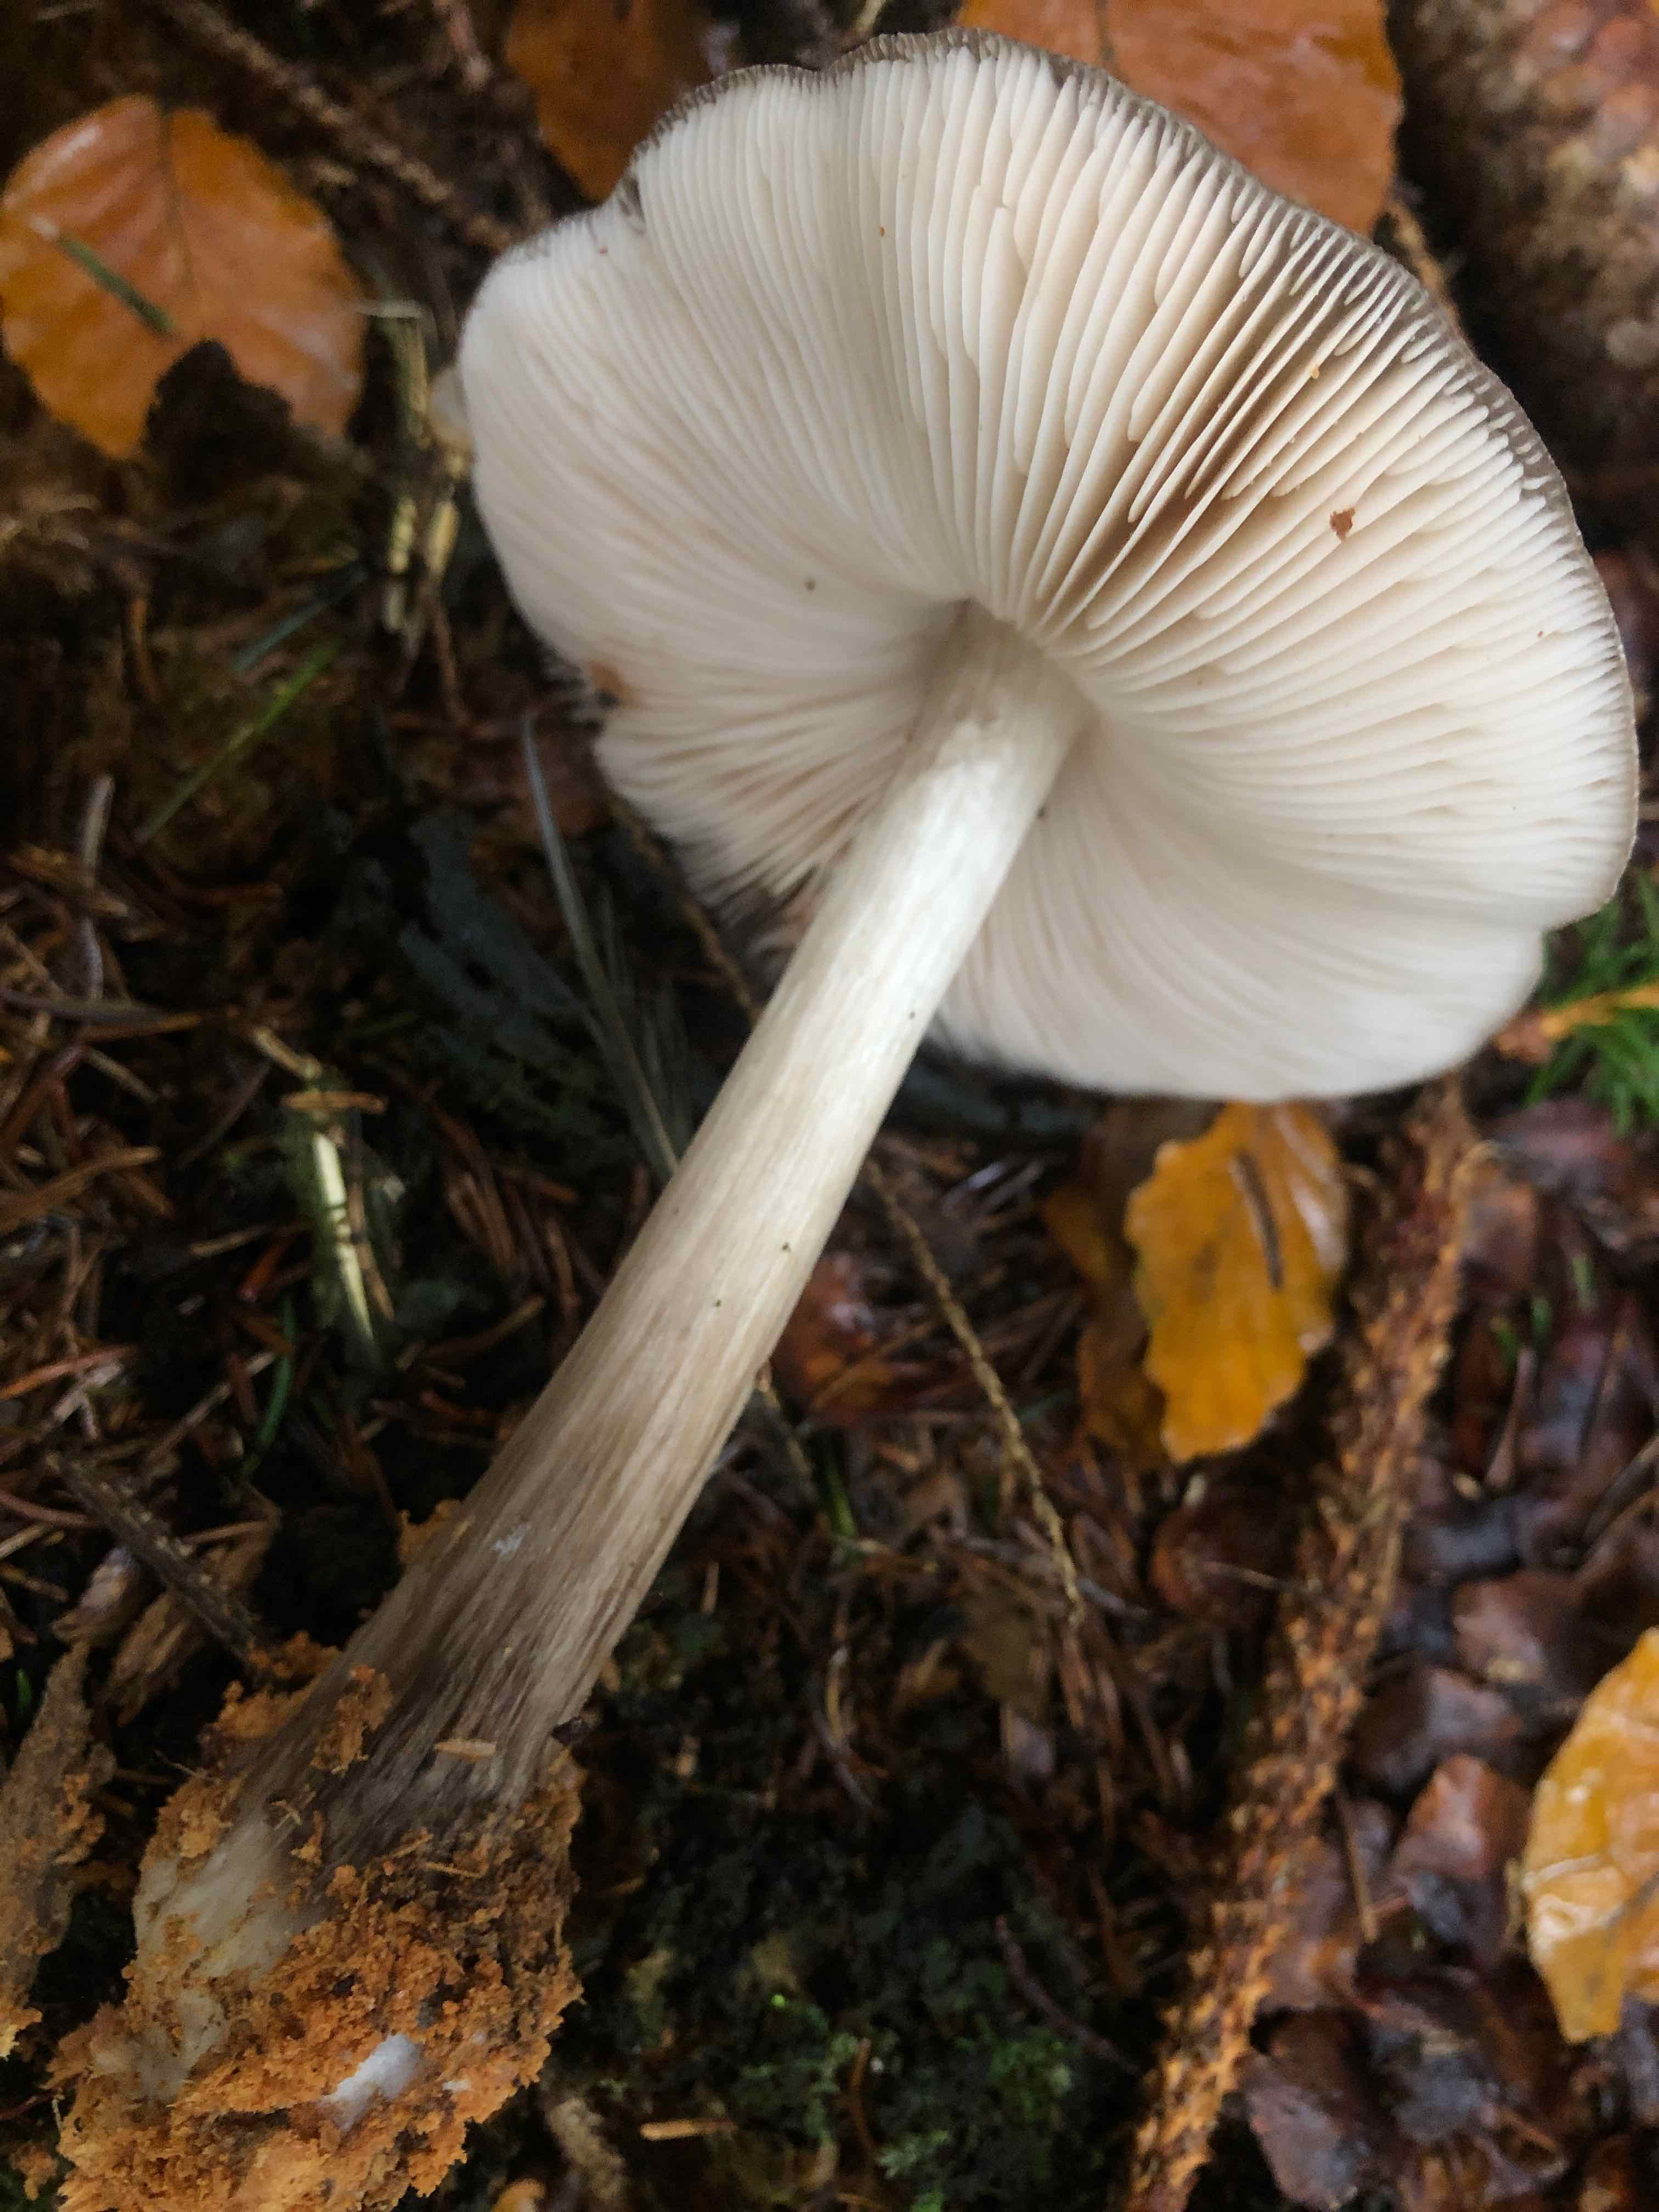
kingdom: Fungi
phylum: Basidiomycota
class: Agaricomycetes
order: Agaricales
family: Pluteaceae
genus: Pluteus
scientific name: Pluteus cervinus
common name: sodfarvet skærmhat
